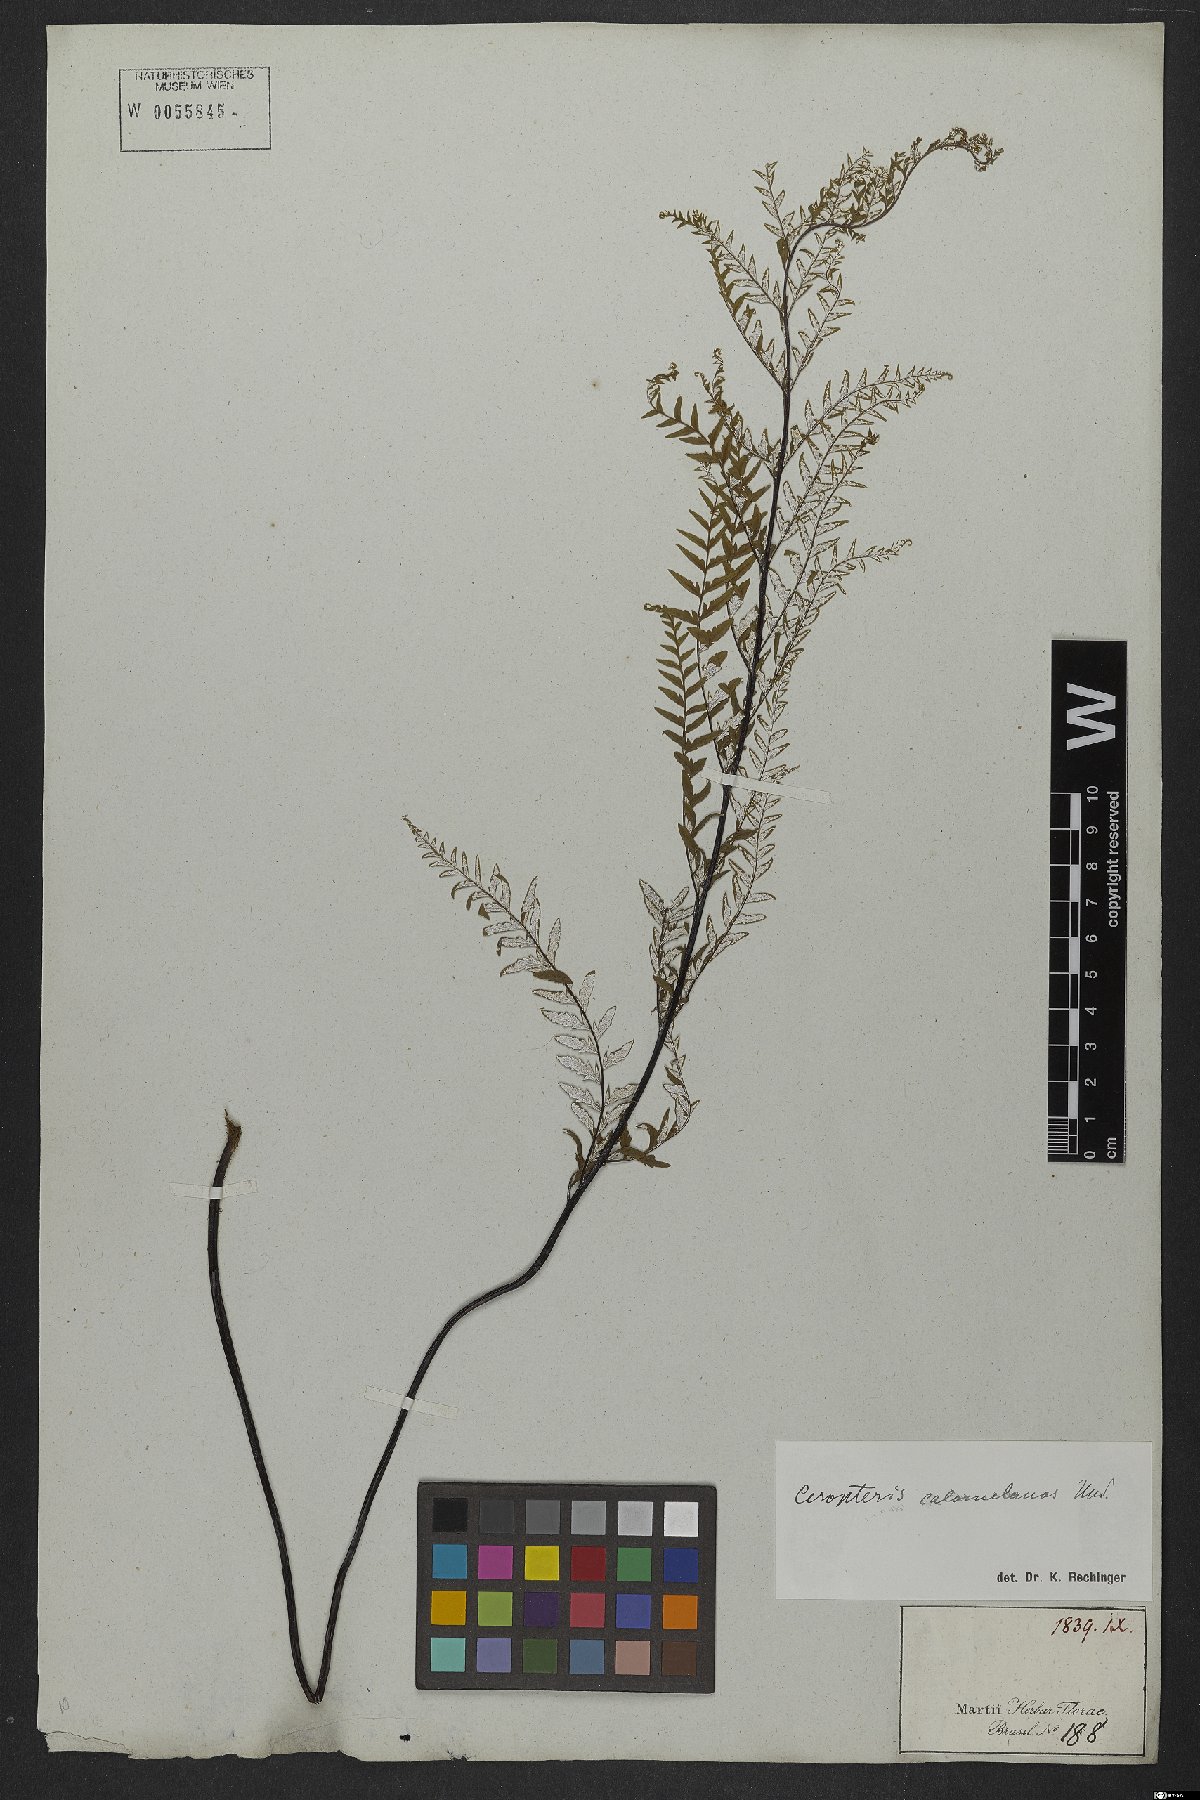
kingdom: Plantae
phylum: Tracheophyta
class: Polypodiopsida
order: Polypodiales
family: Pteridaceae
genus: Pityrogramma
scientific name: Pityrogramma calomelanos
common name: Dixie silverback fern
